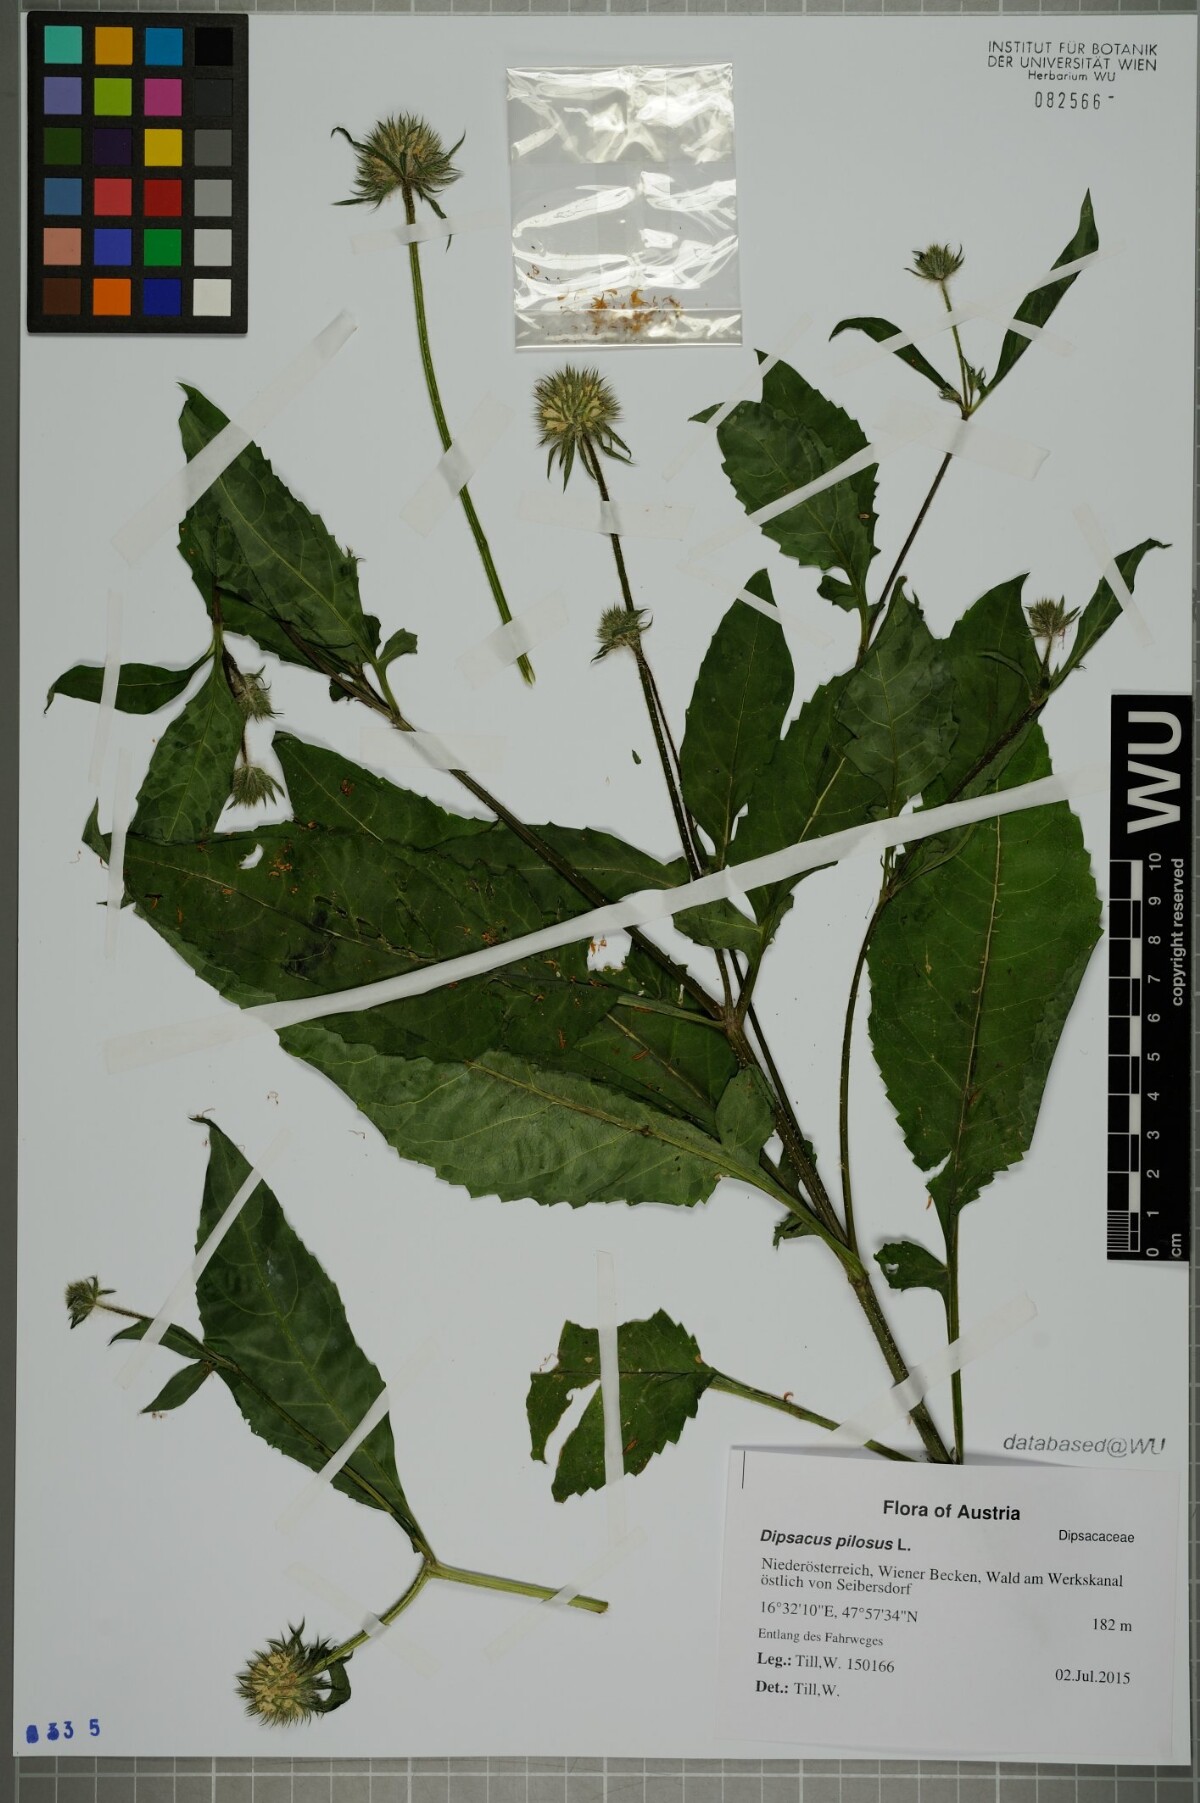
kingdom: Plantae
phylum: Tracheophyta
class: Magnoliopsida
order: Dipsacales
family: Caprifoliaceae
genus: Dipsacus
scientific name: Dipsacus pilosus
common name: Small teasel
